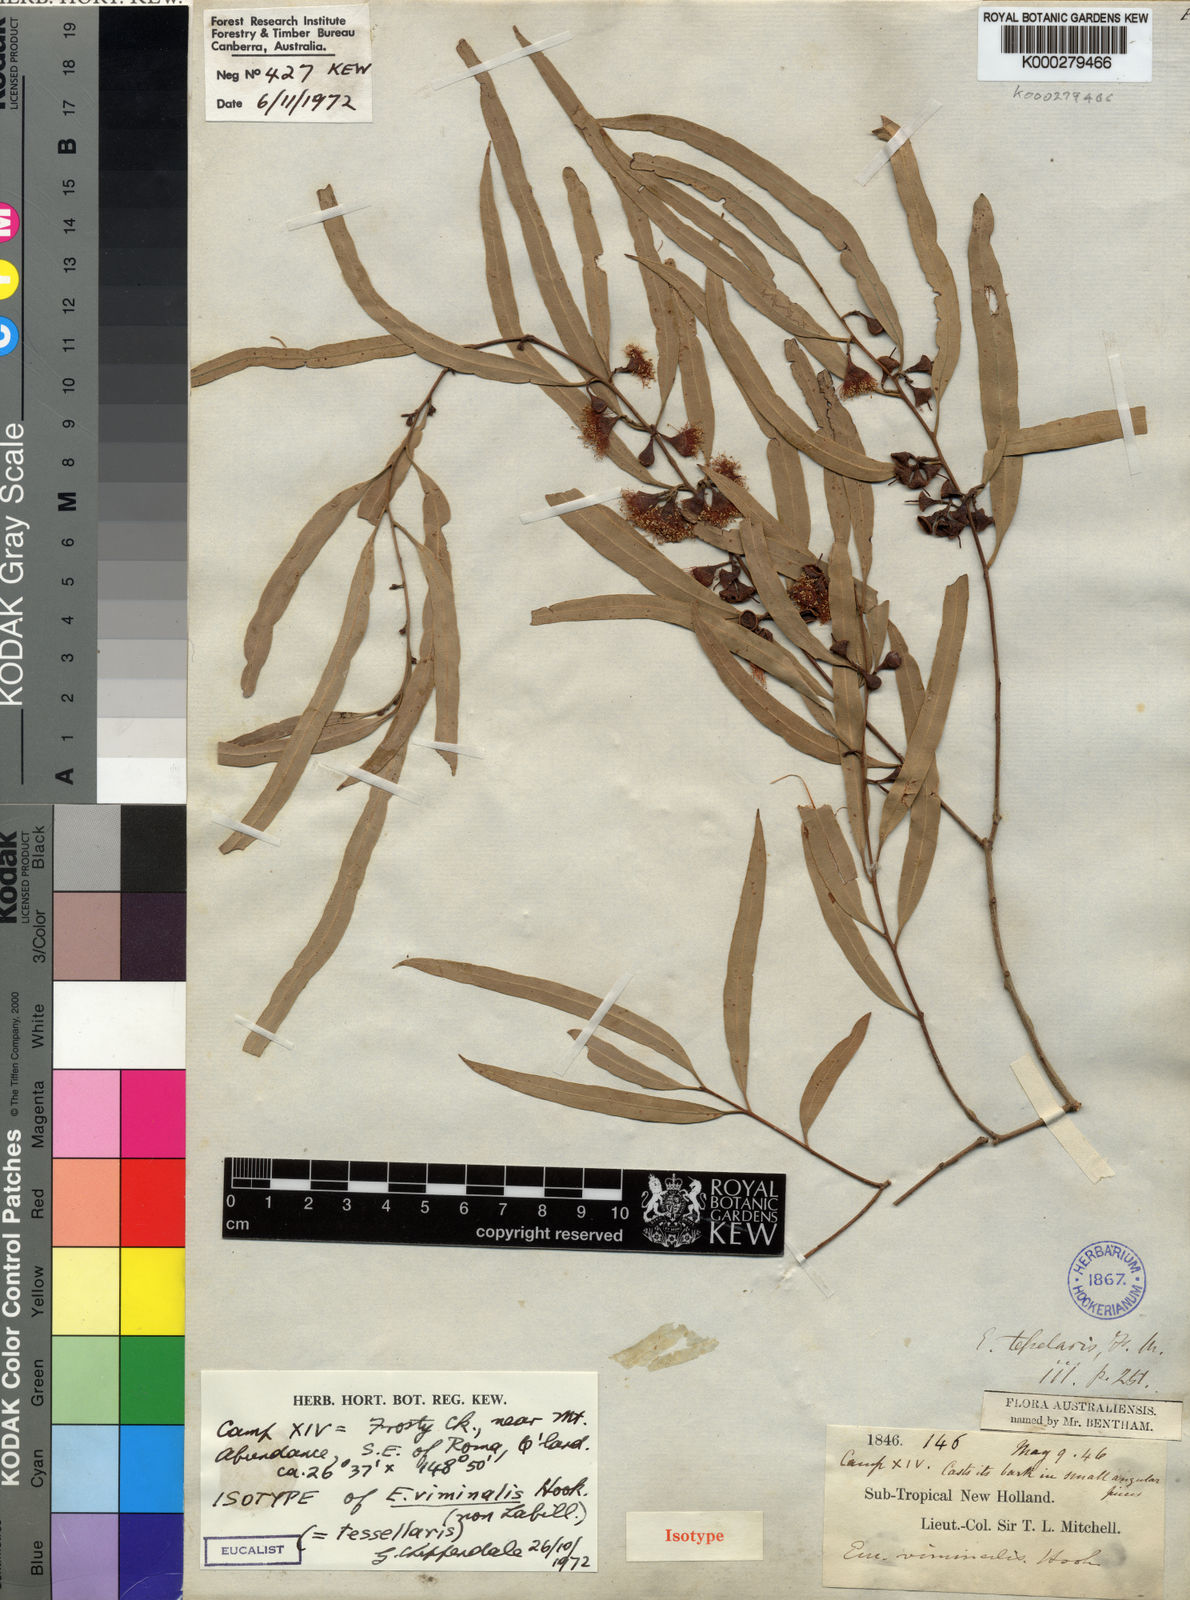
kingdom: Plantae
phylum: Tracheophyta
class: Magnoliopsida
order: Myrtales
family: Myrtaceae
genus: Corymbia
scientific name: Corymbia tessellaris
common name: Carbeen
